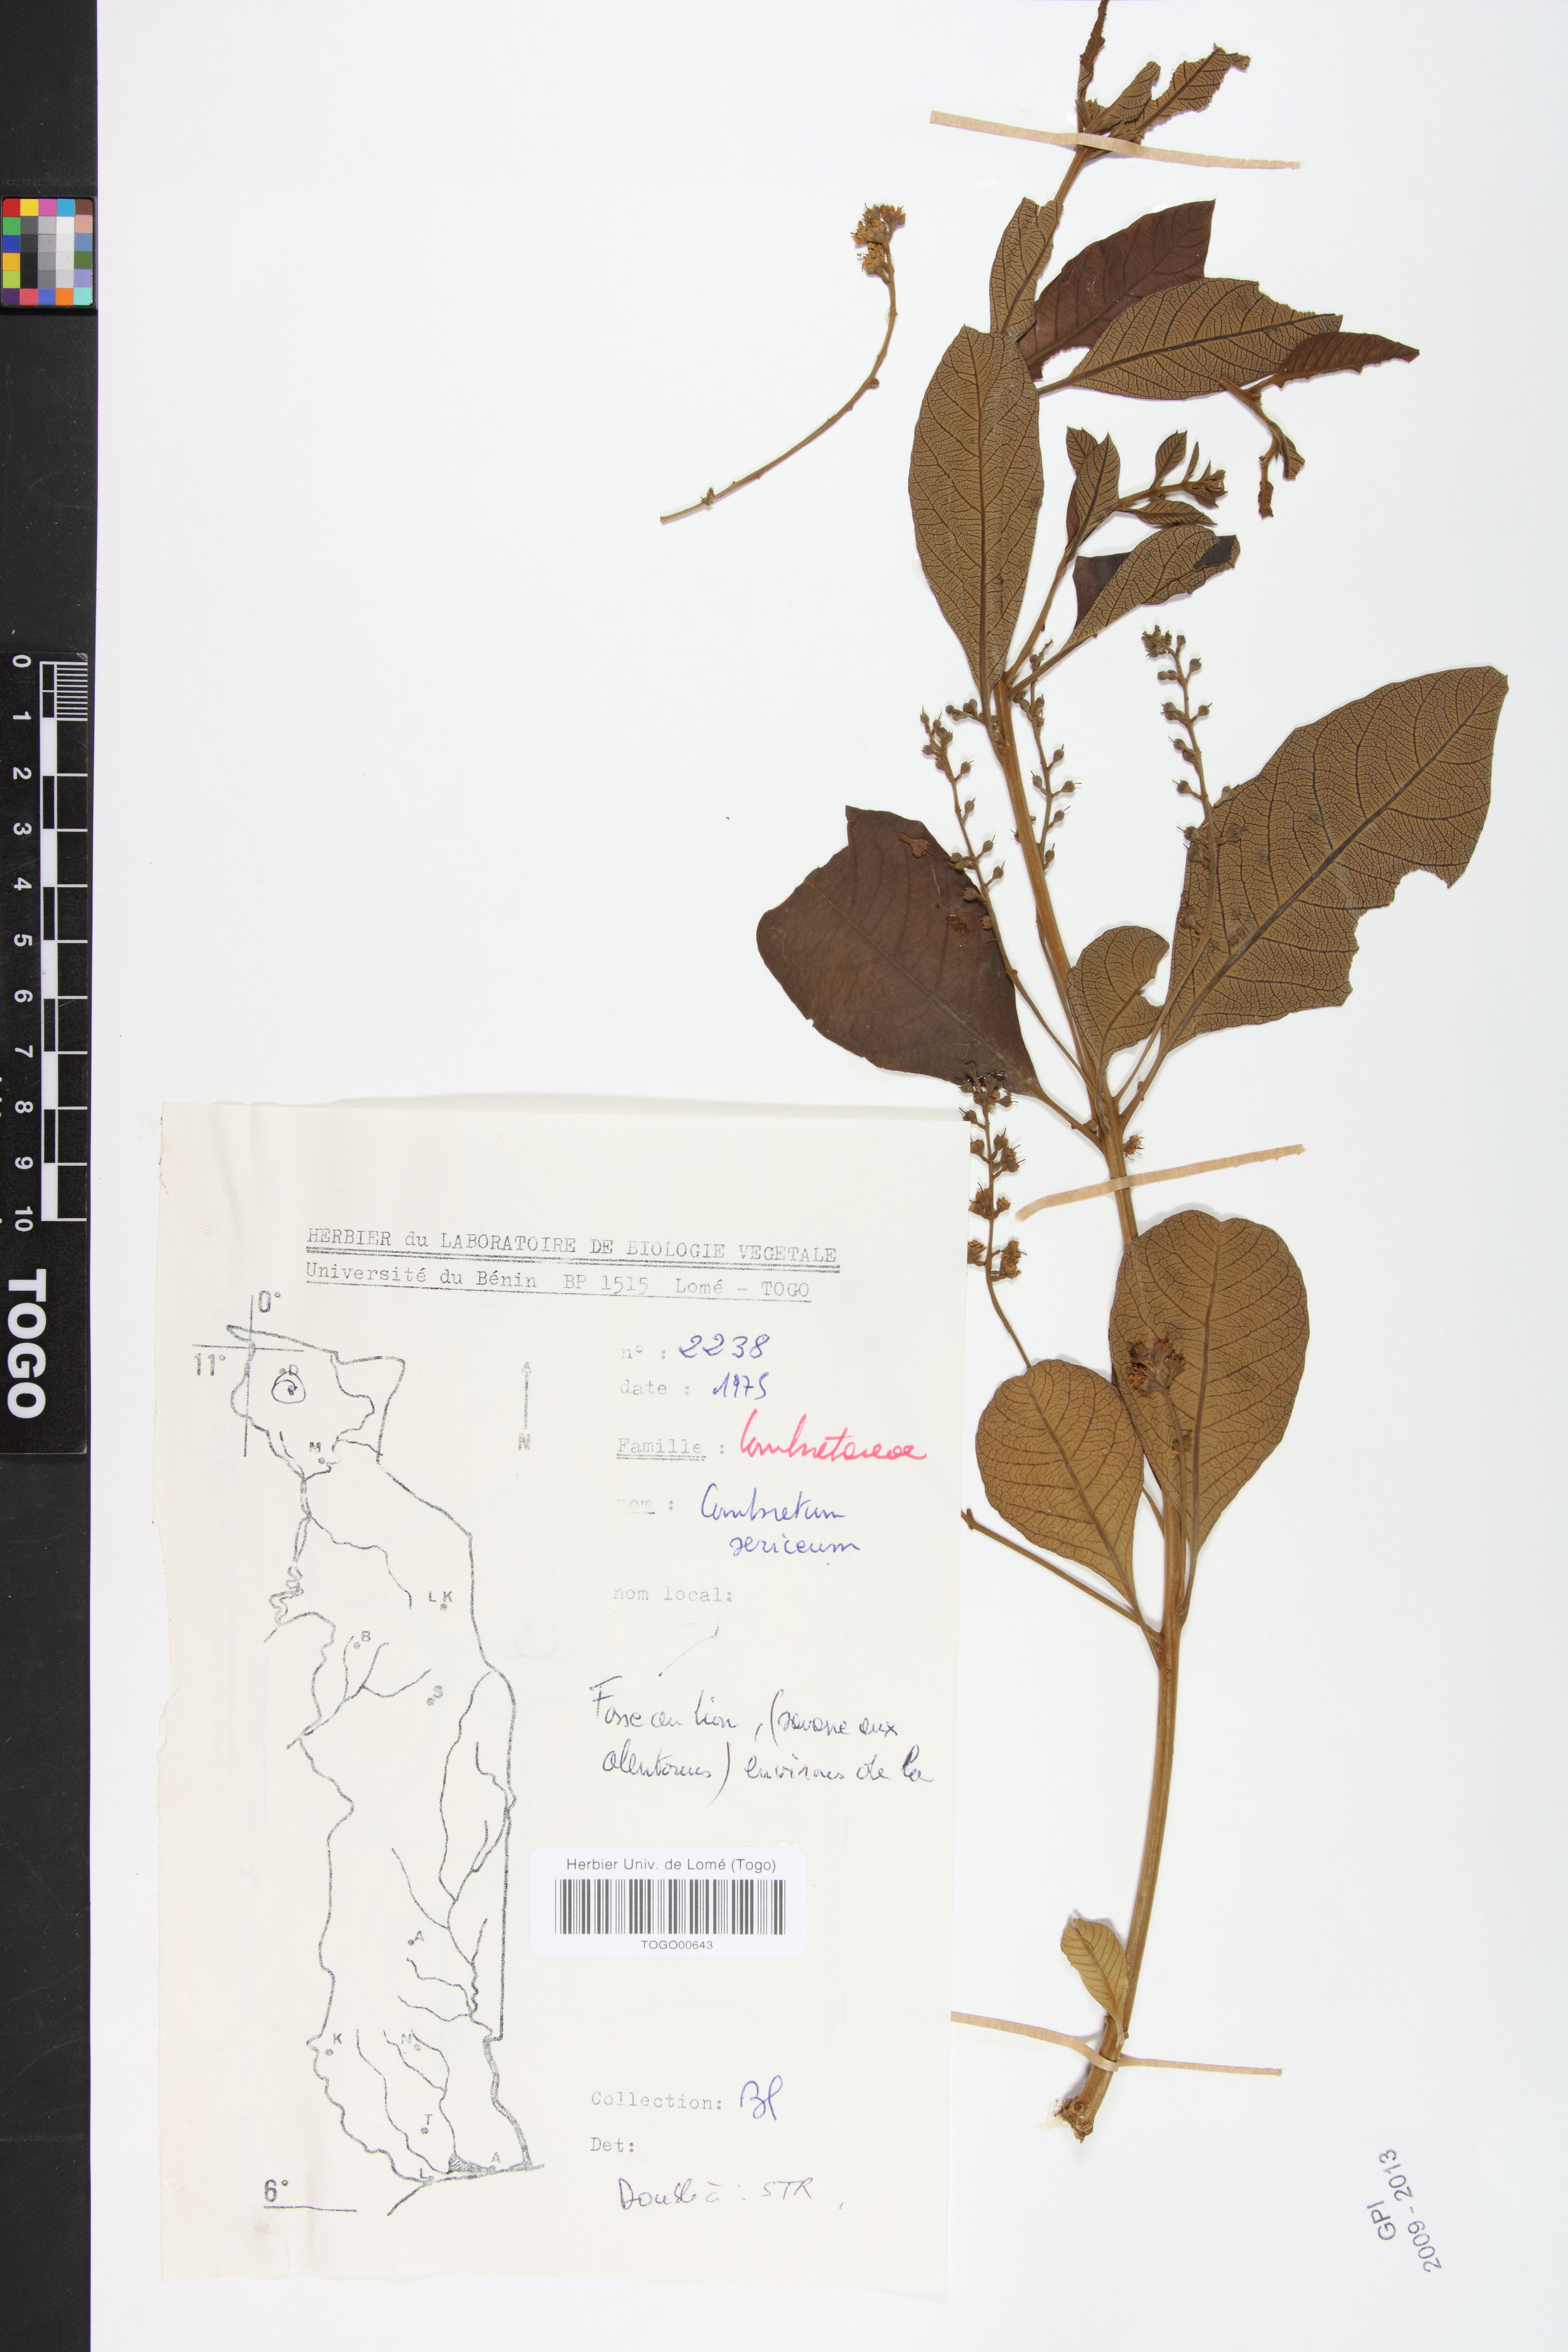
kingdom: Plantae
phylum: Tracheophyta
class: Magnoliopsida
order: Myrtales
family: Combretaceae
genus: Combretum
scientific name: Combretum sericeum
